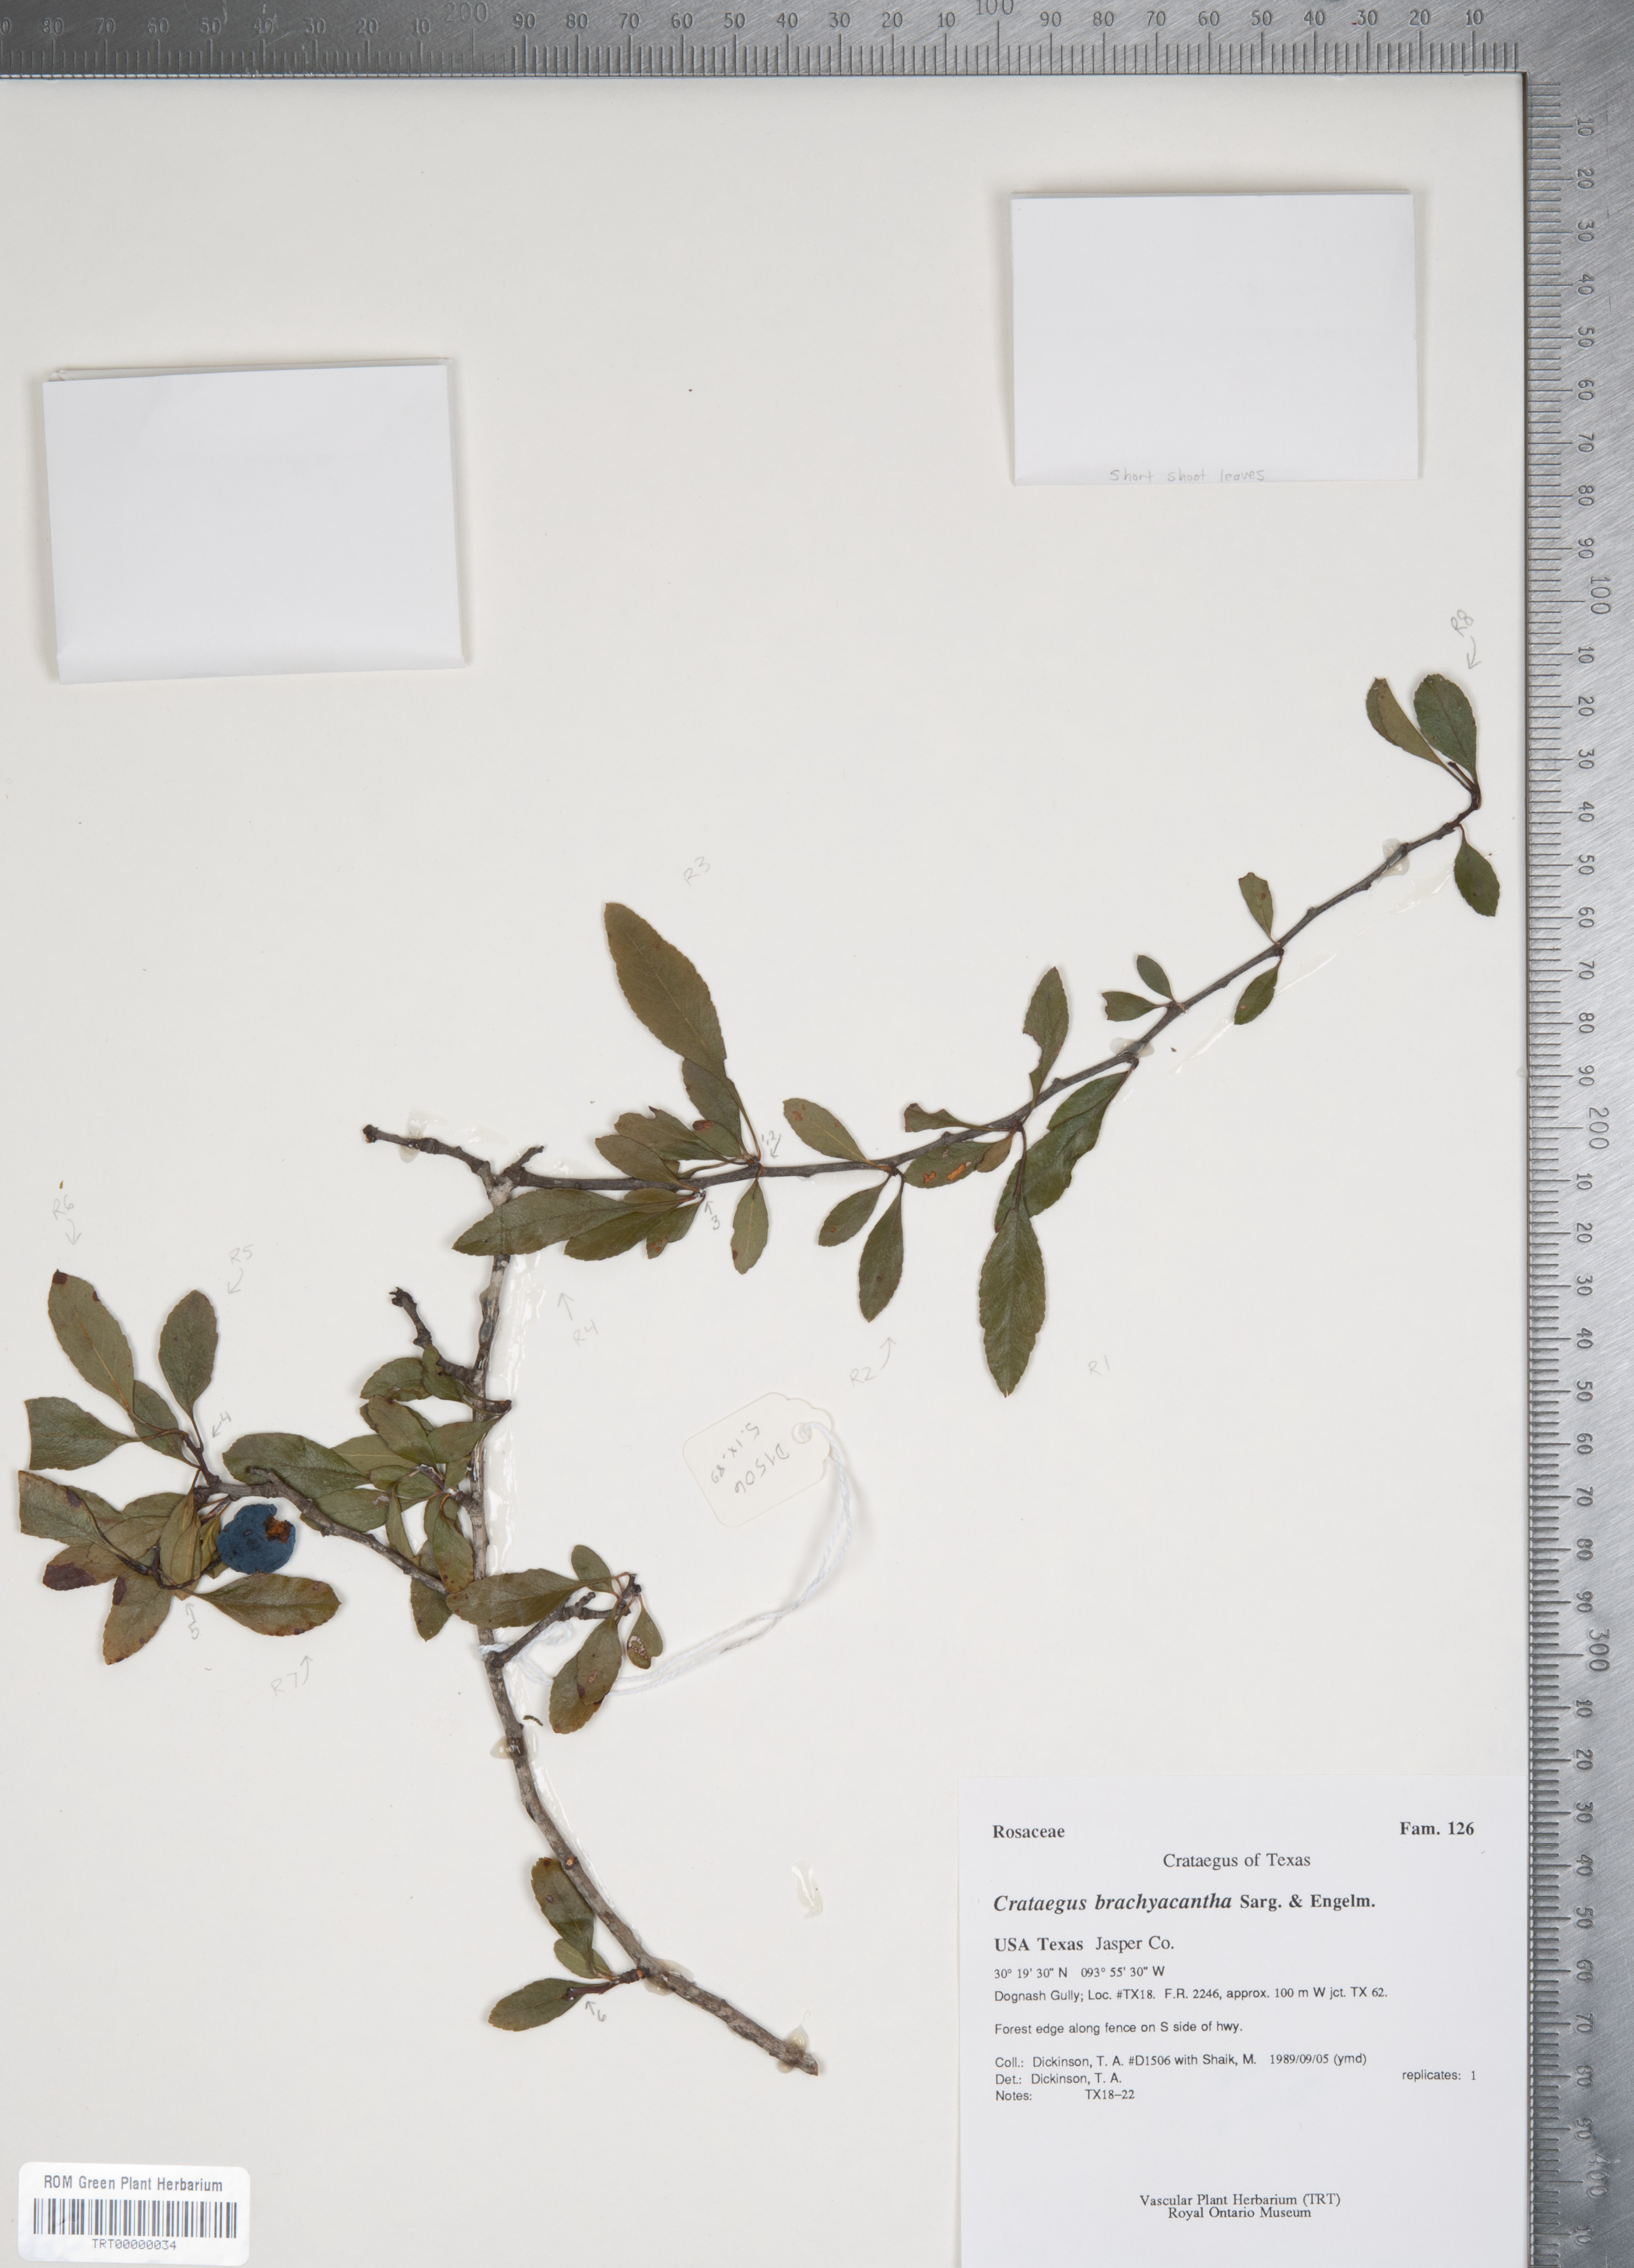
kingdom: Plantae
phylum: Tracheophyta
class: Magnoliopsida
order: Rosales
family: Rosaceae
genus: Crataegus
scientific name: Crataegus brachyacantha
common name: Blueberry-hawthorn
